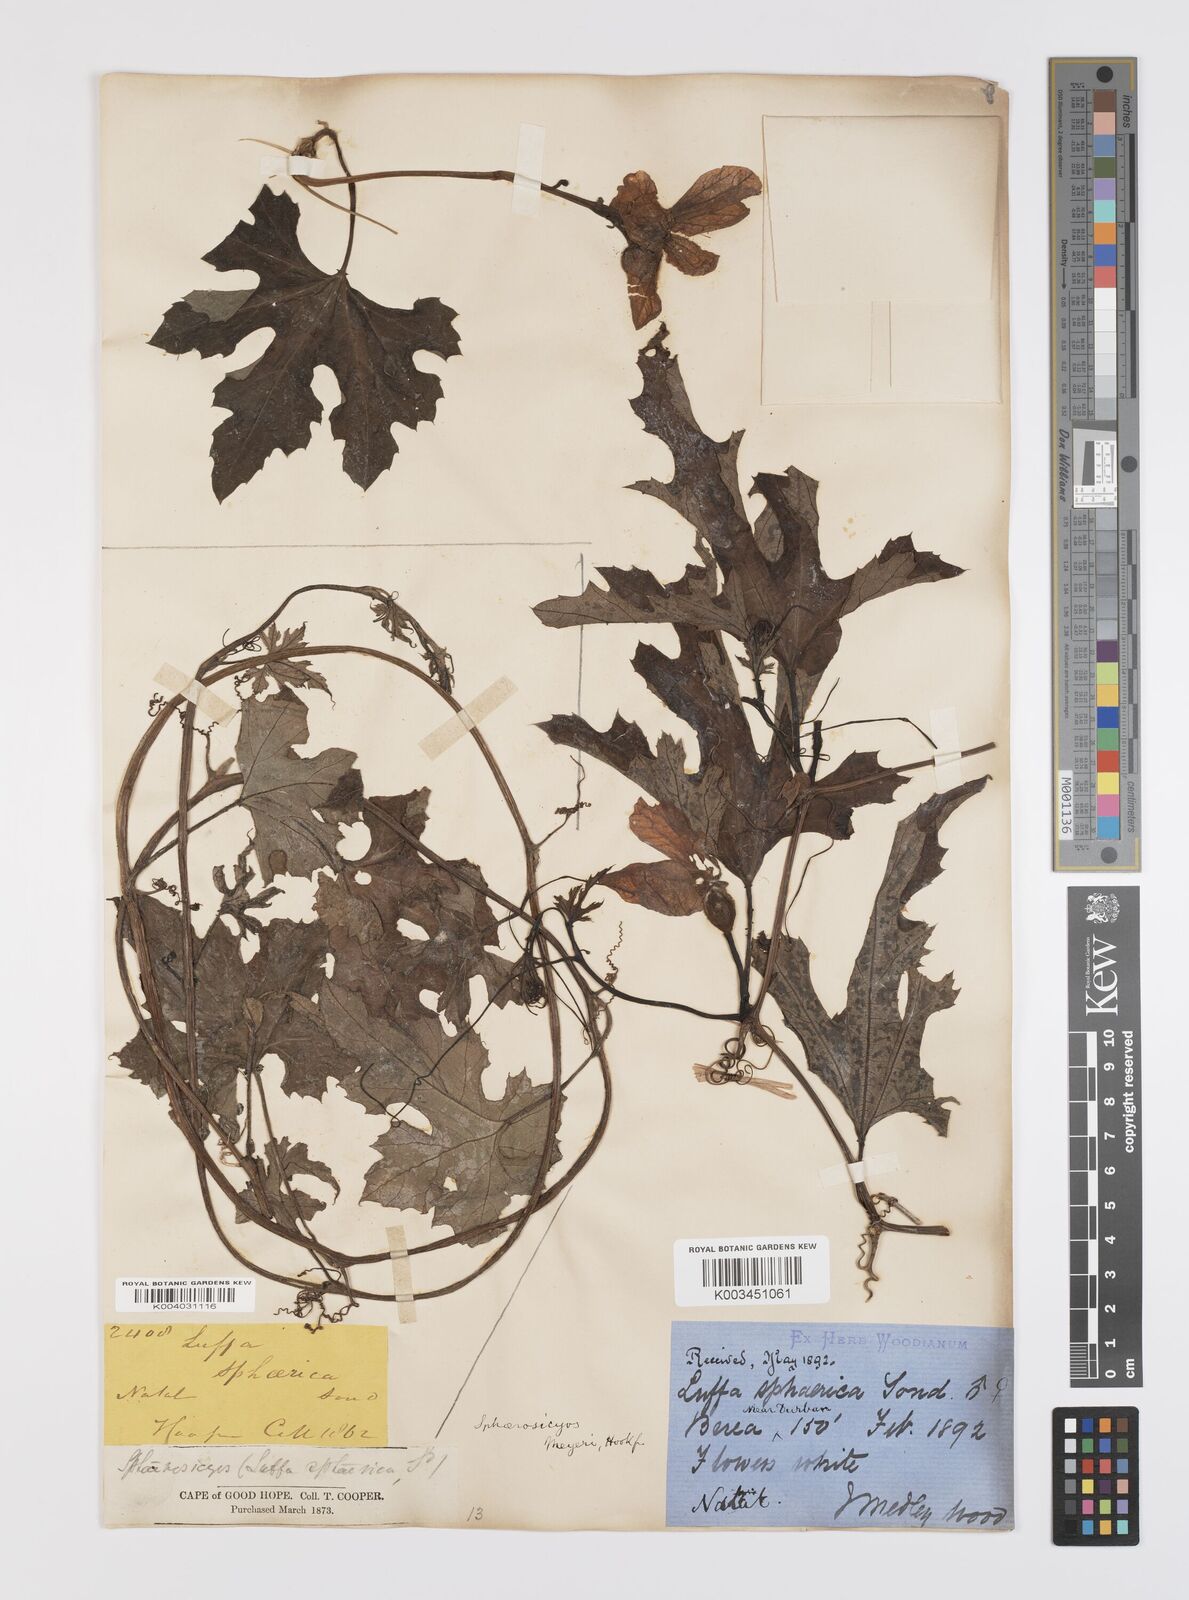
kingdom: Plantae
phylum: Tracheophyta
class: Magnoliopsida
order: Cucurbitales
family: Cucurbitaceae
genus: Lagenaria
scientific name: Lagenaria sphaerica
